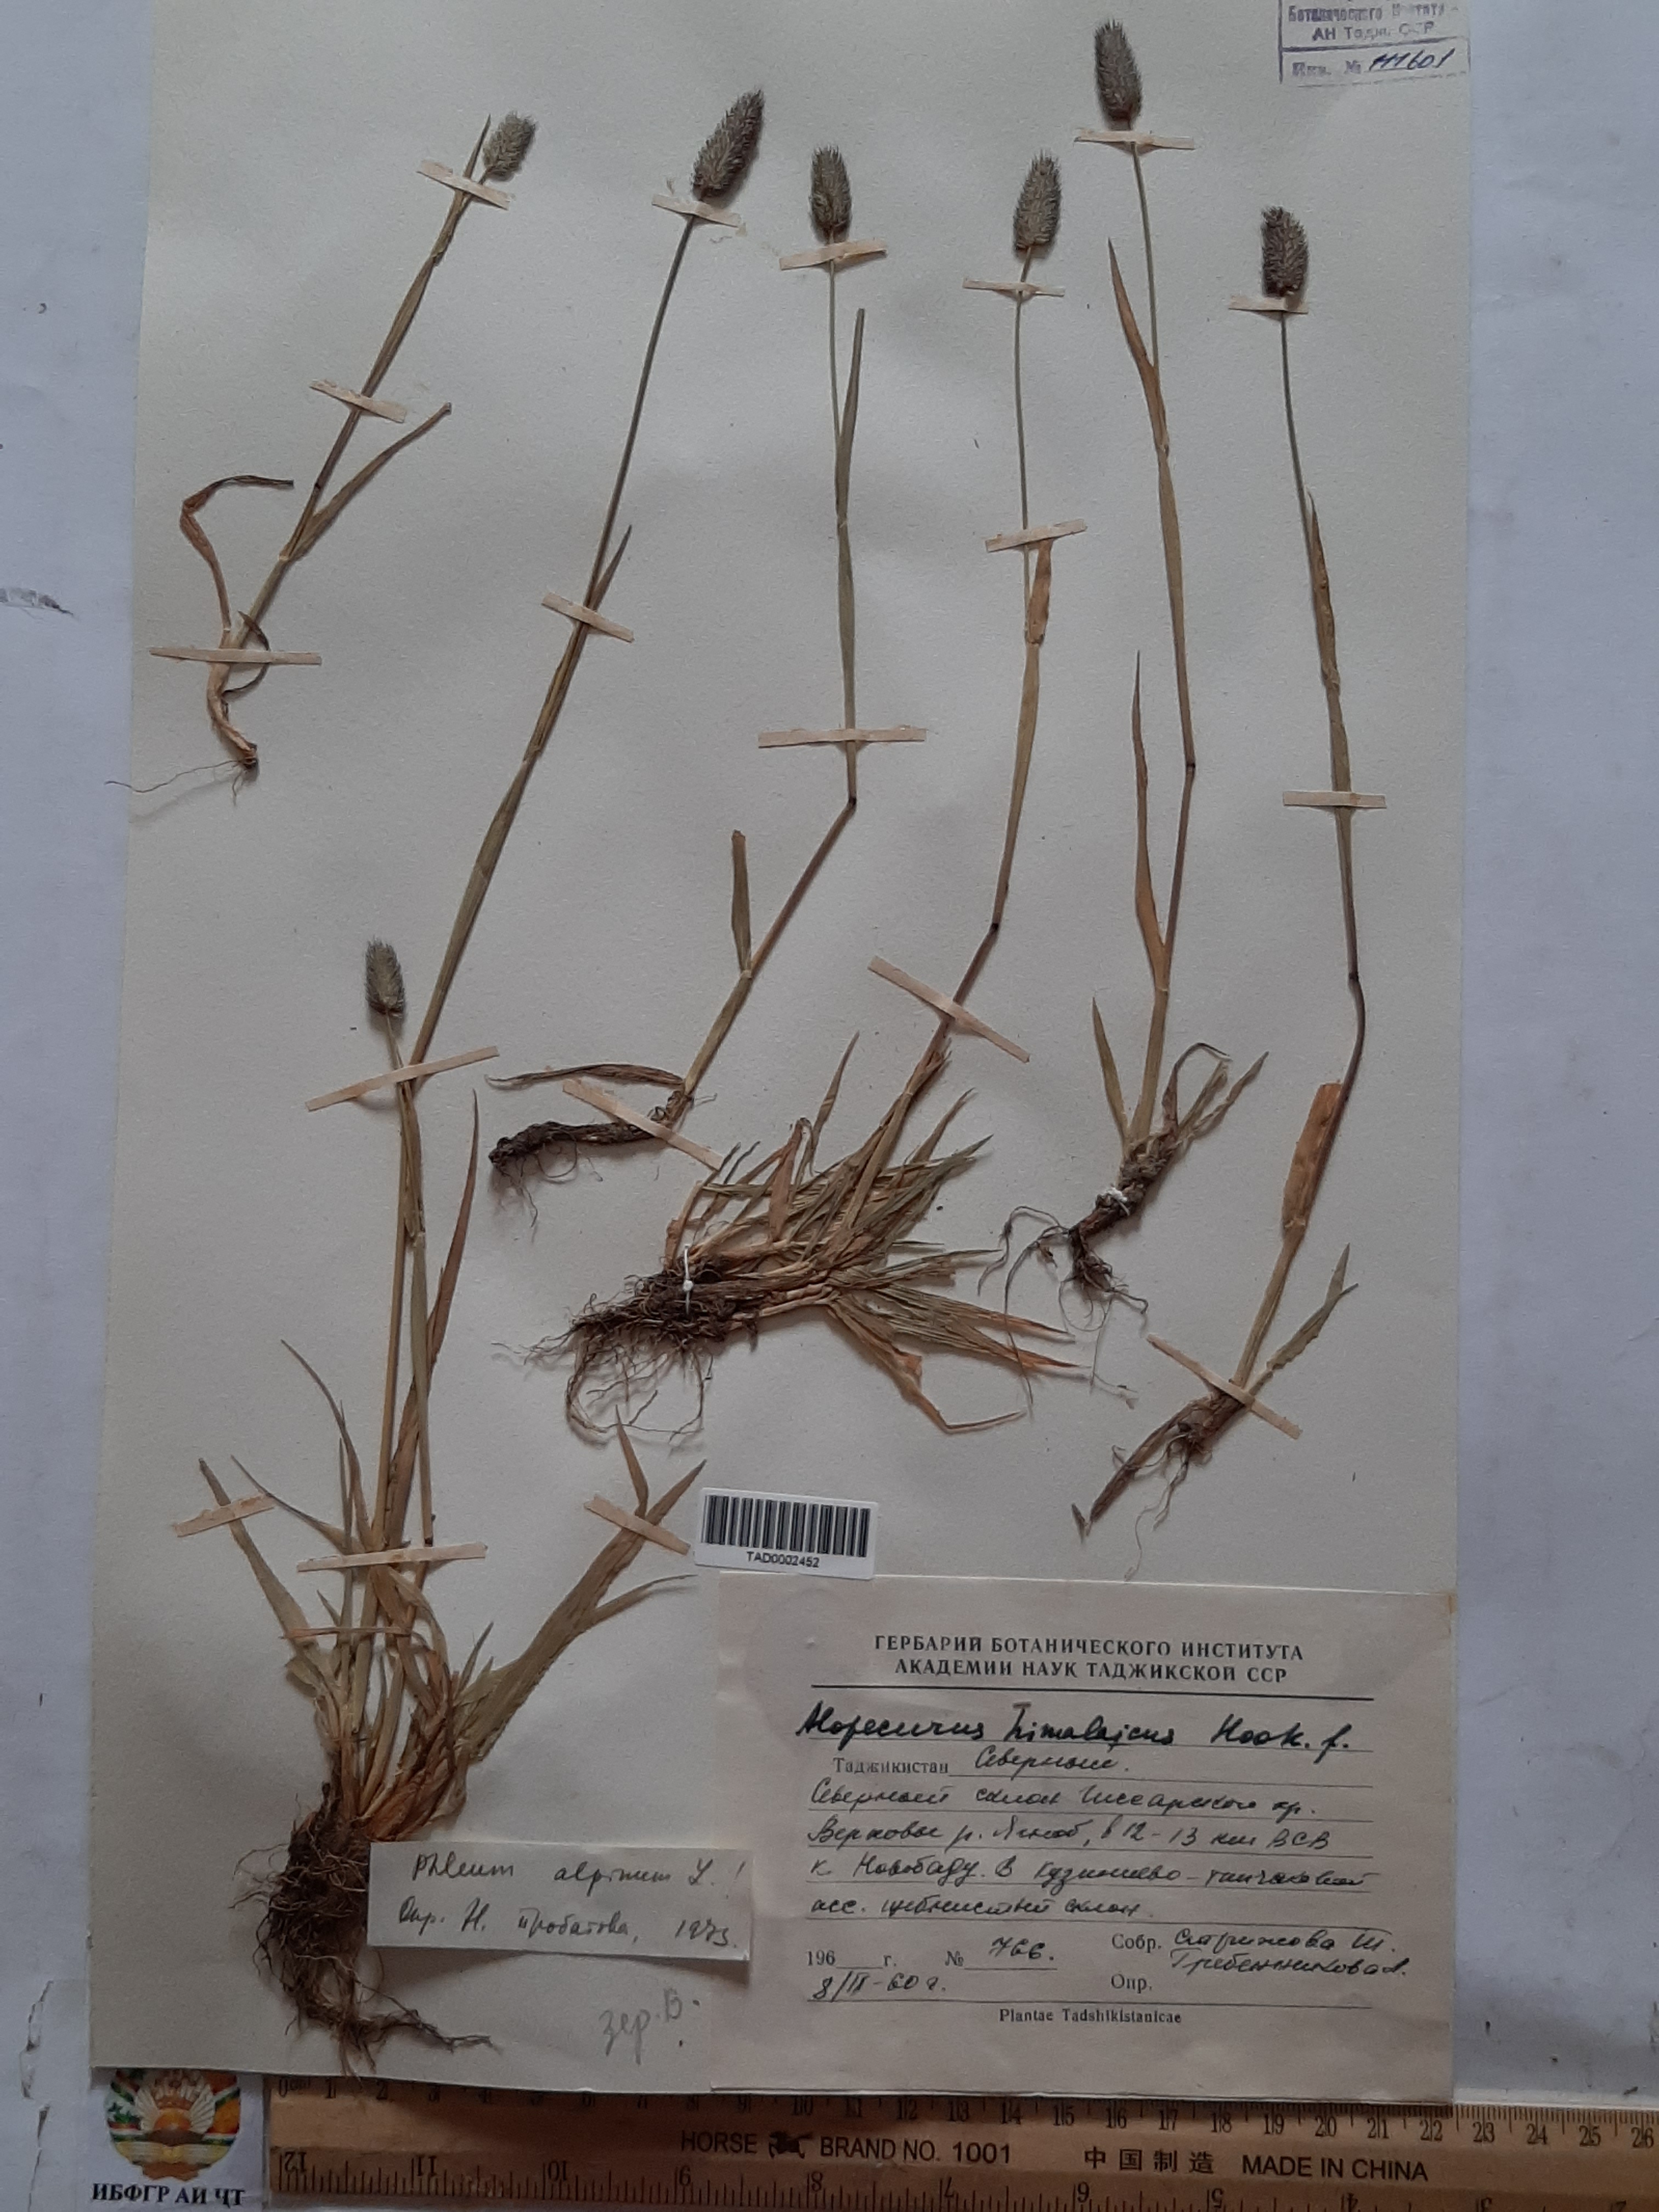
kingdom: Plantae
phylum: Tracheophyta
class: Liliopsida
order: Poales
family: Poaceae
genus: Alopecurus
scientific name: Alopecurus himalaicus
